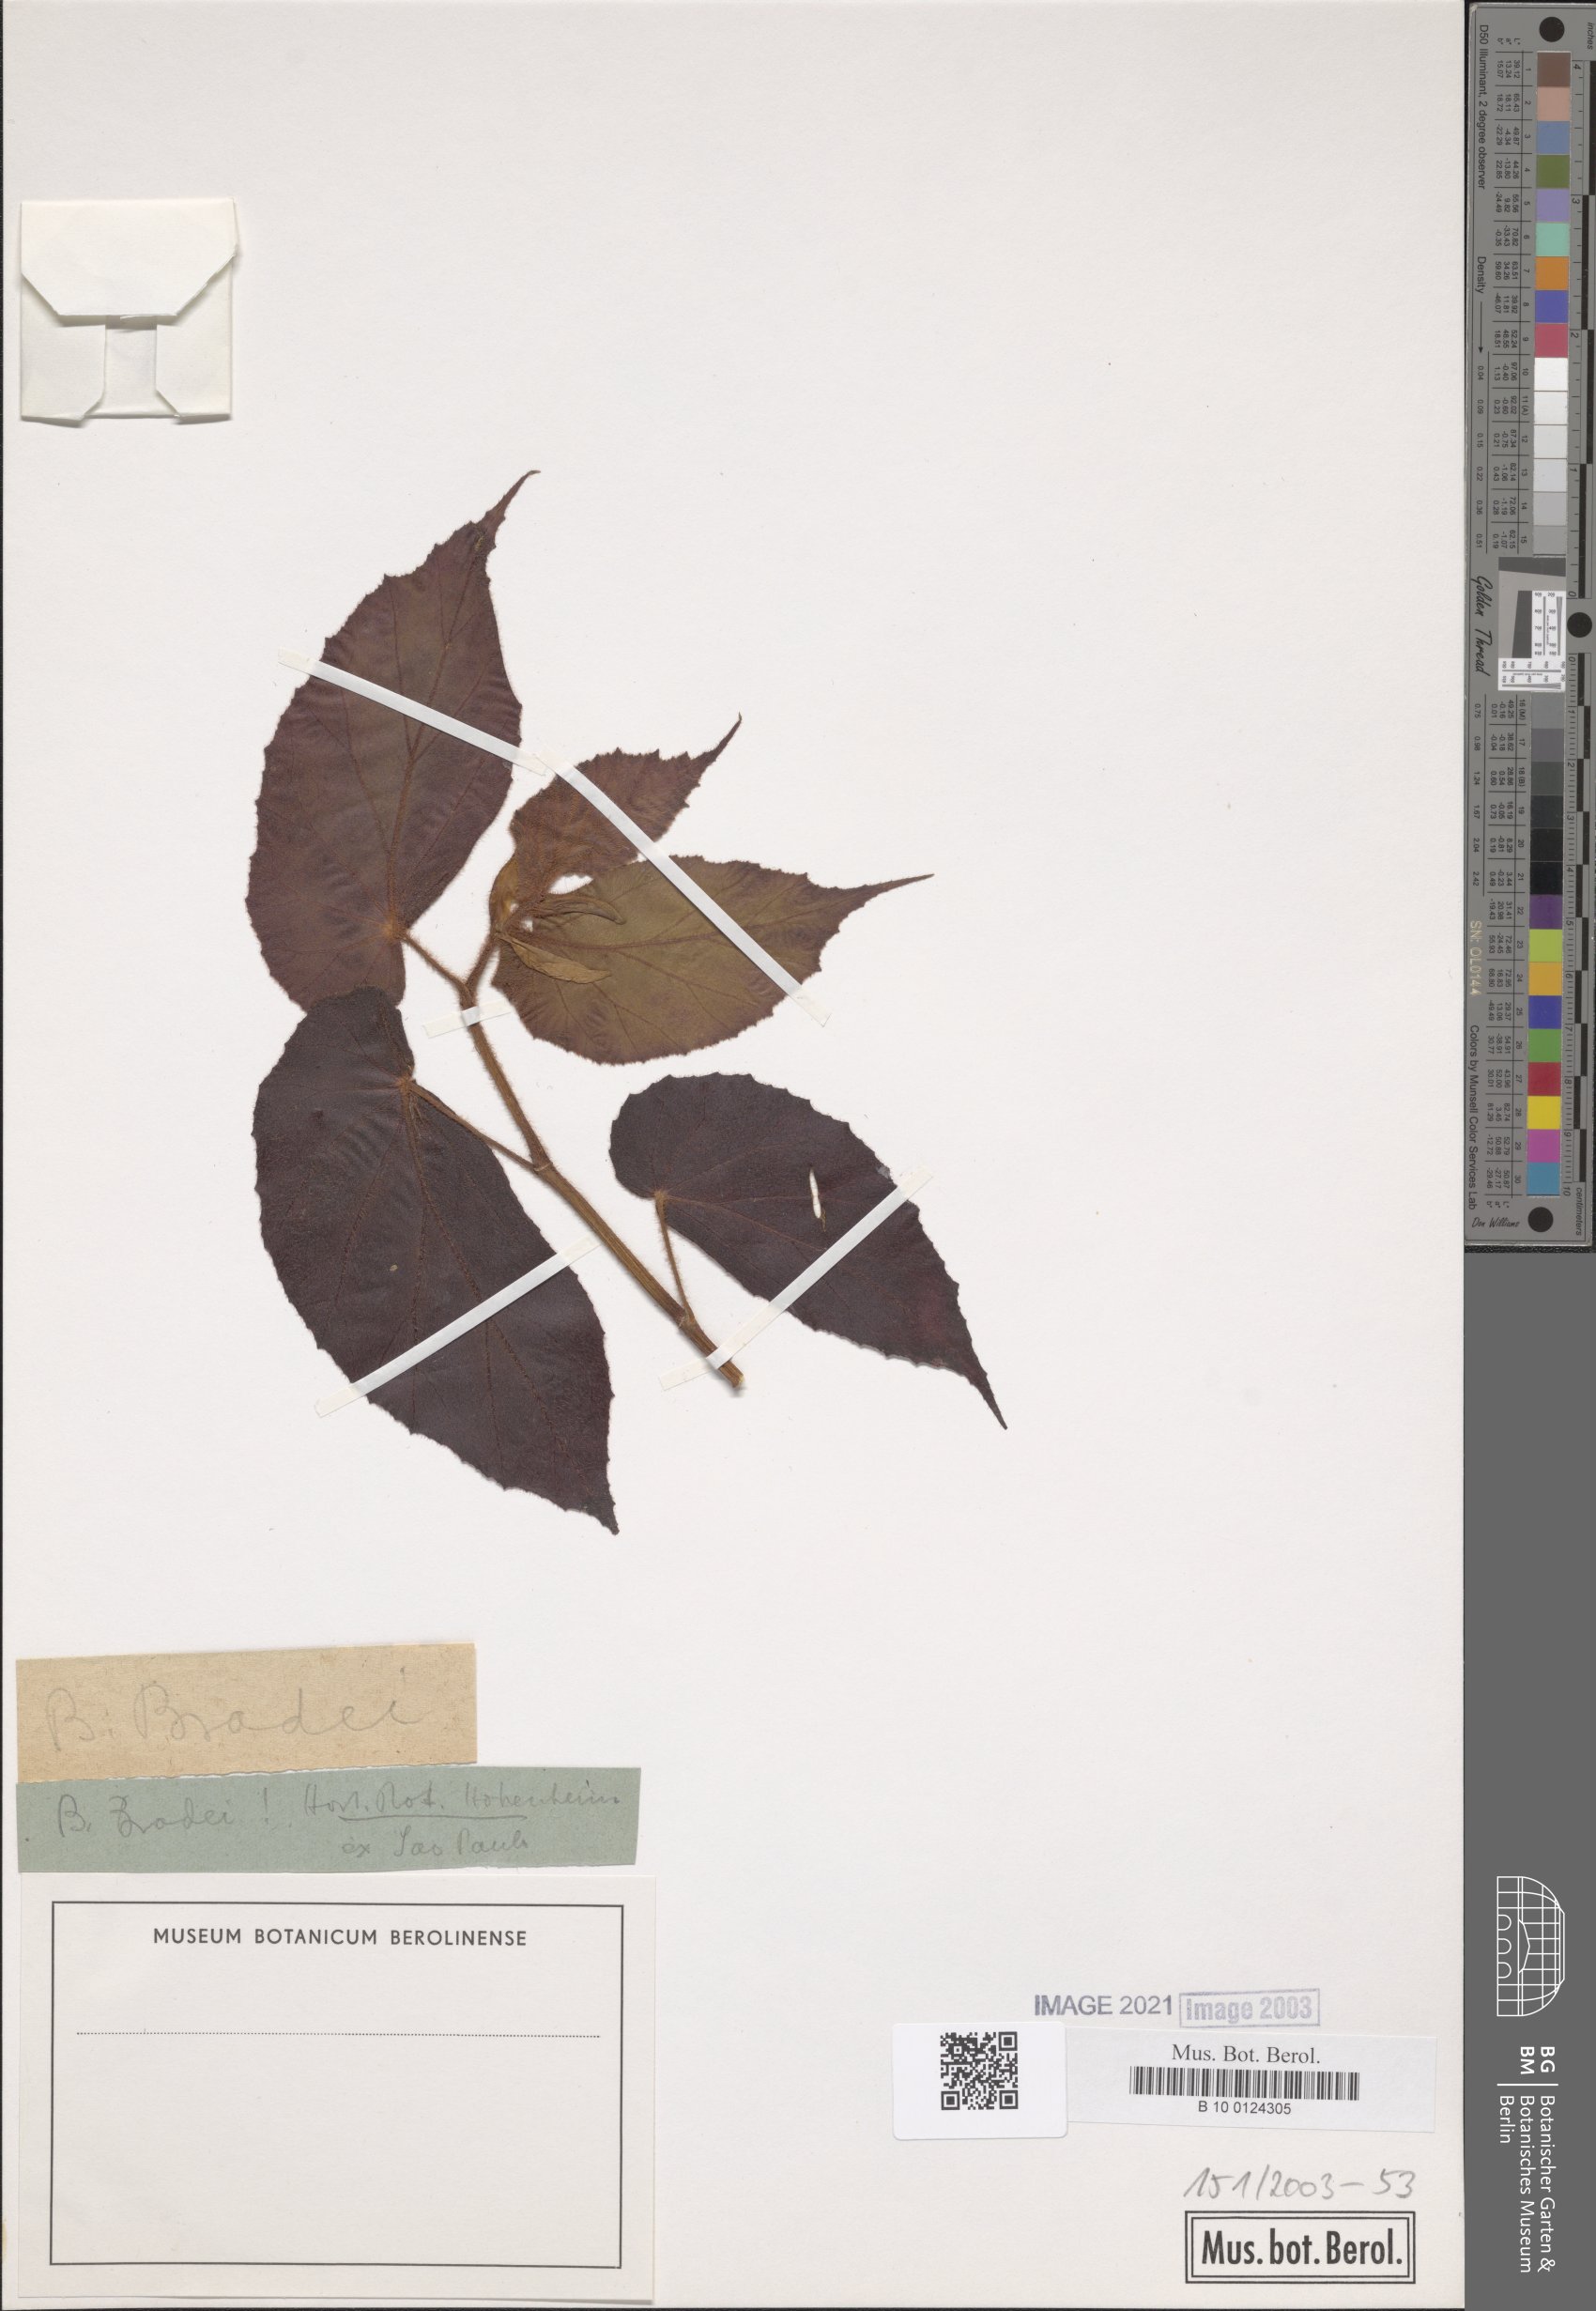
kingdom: Plantae
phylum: Tracheophyta
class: Magnoliopsida
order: Cucurbitales
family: Begoniaceae
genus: Begonia
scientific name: Begonia bradei
